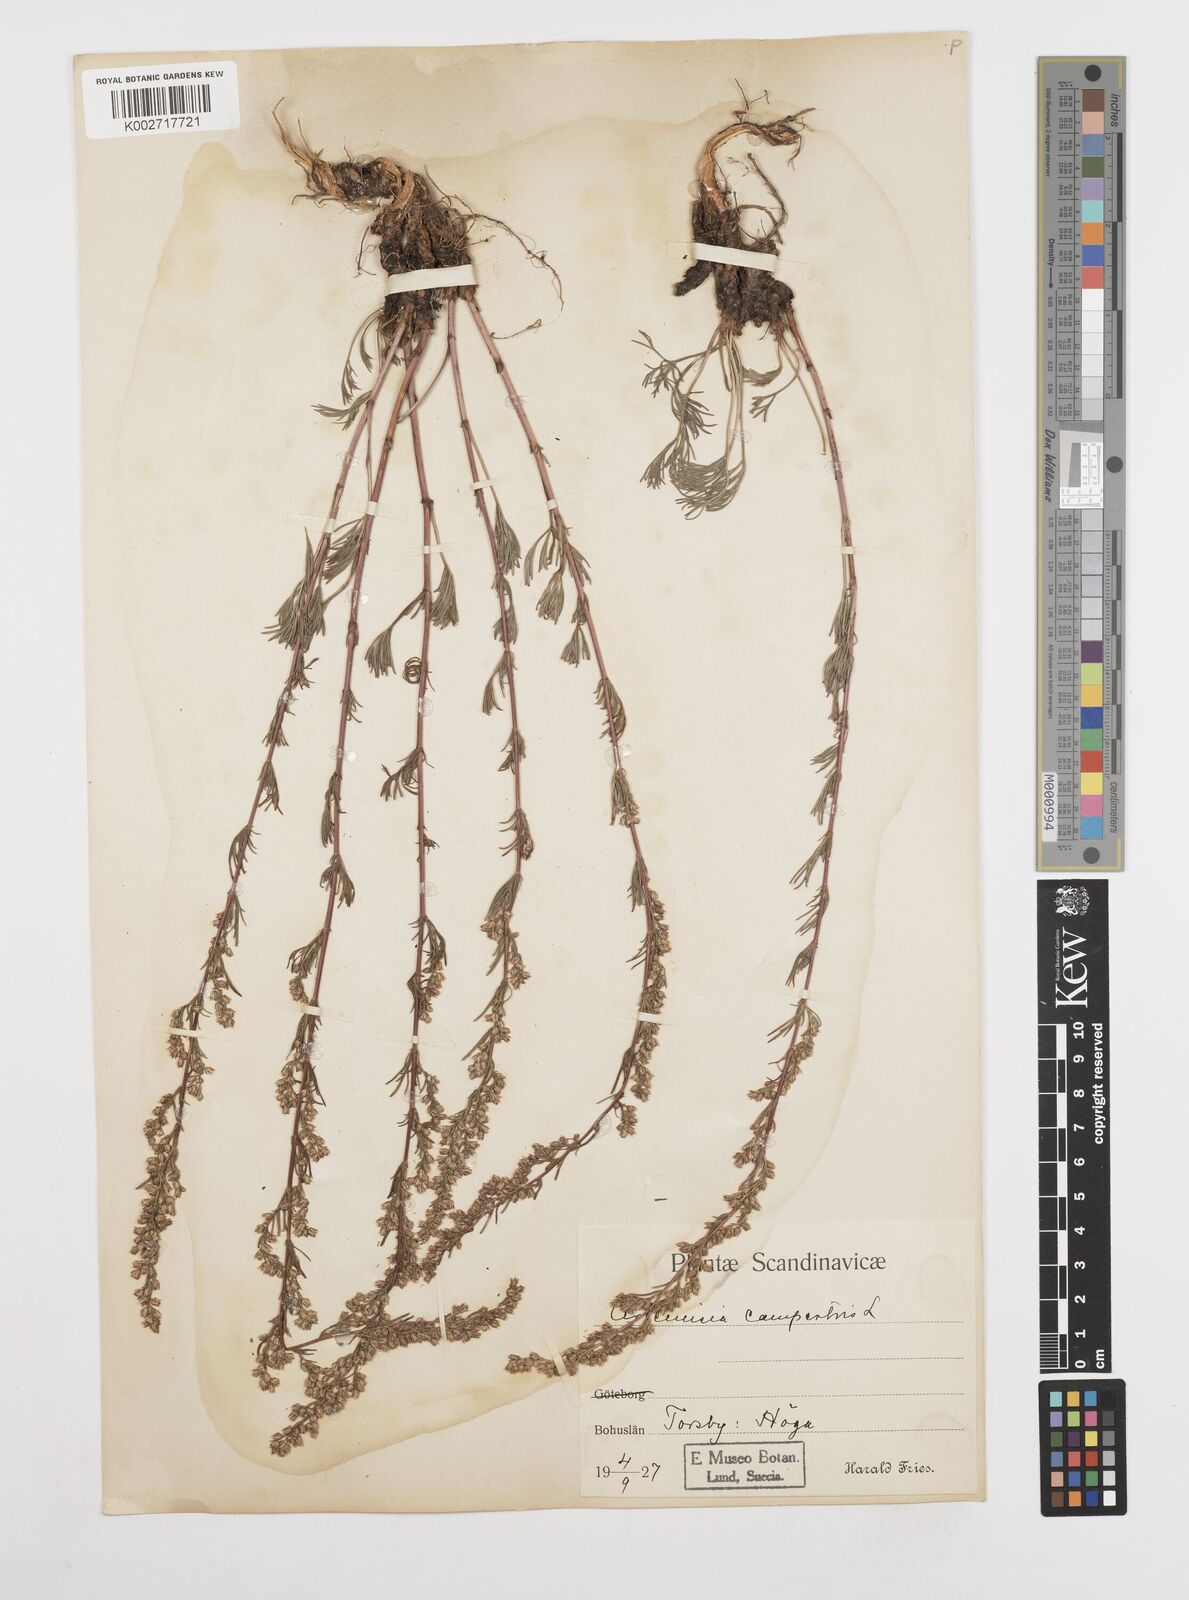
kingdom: Plantae
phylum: Tracheophyta
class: Magnoliopsida
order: Asterales
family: Asteraceae
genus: Artemisia
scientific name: Artemisia campestris
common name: Field wormwood
